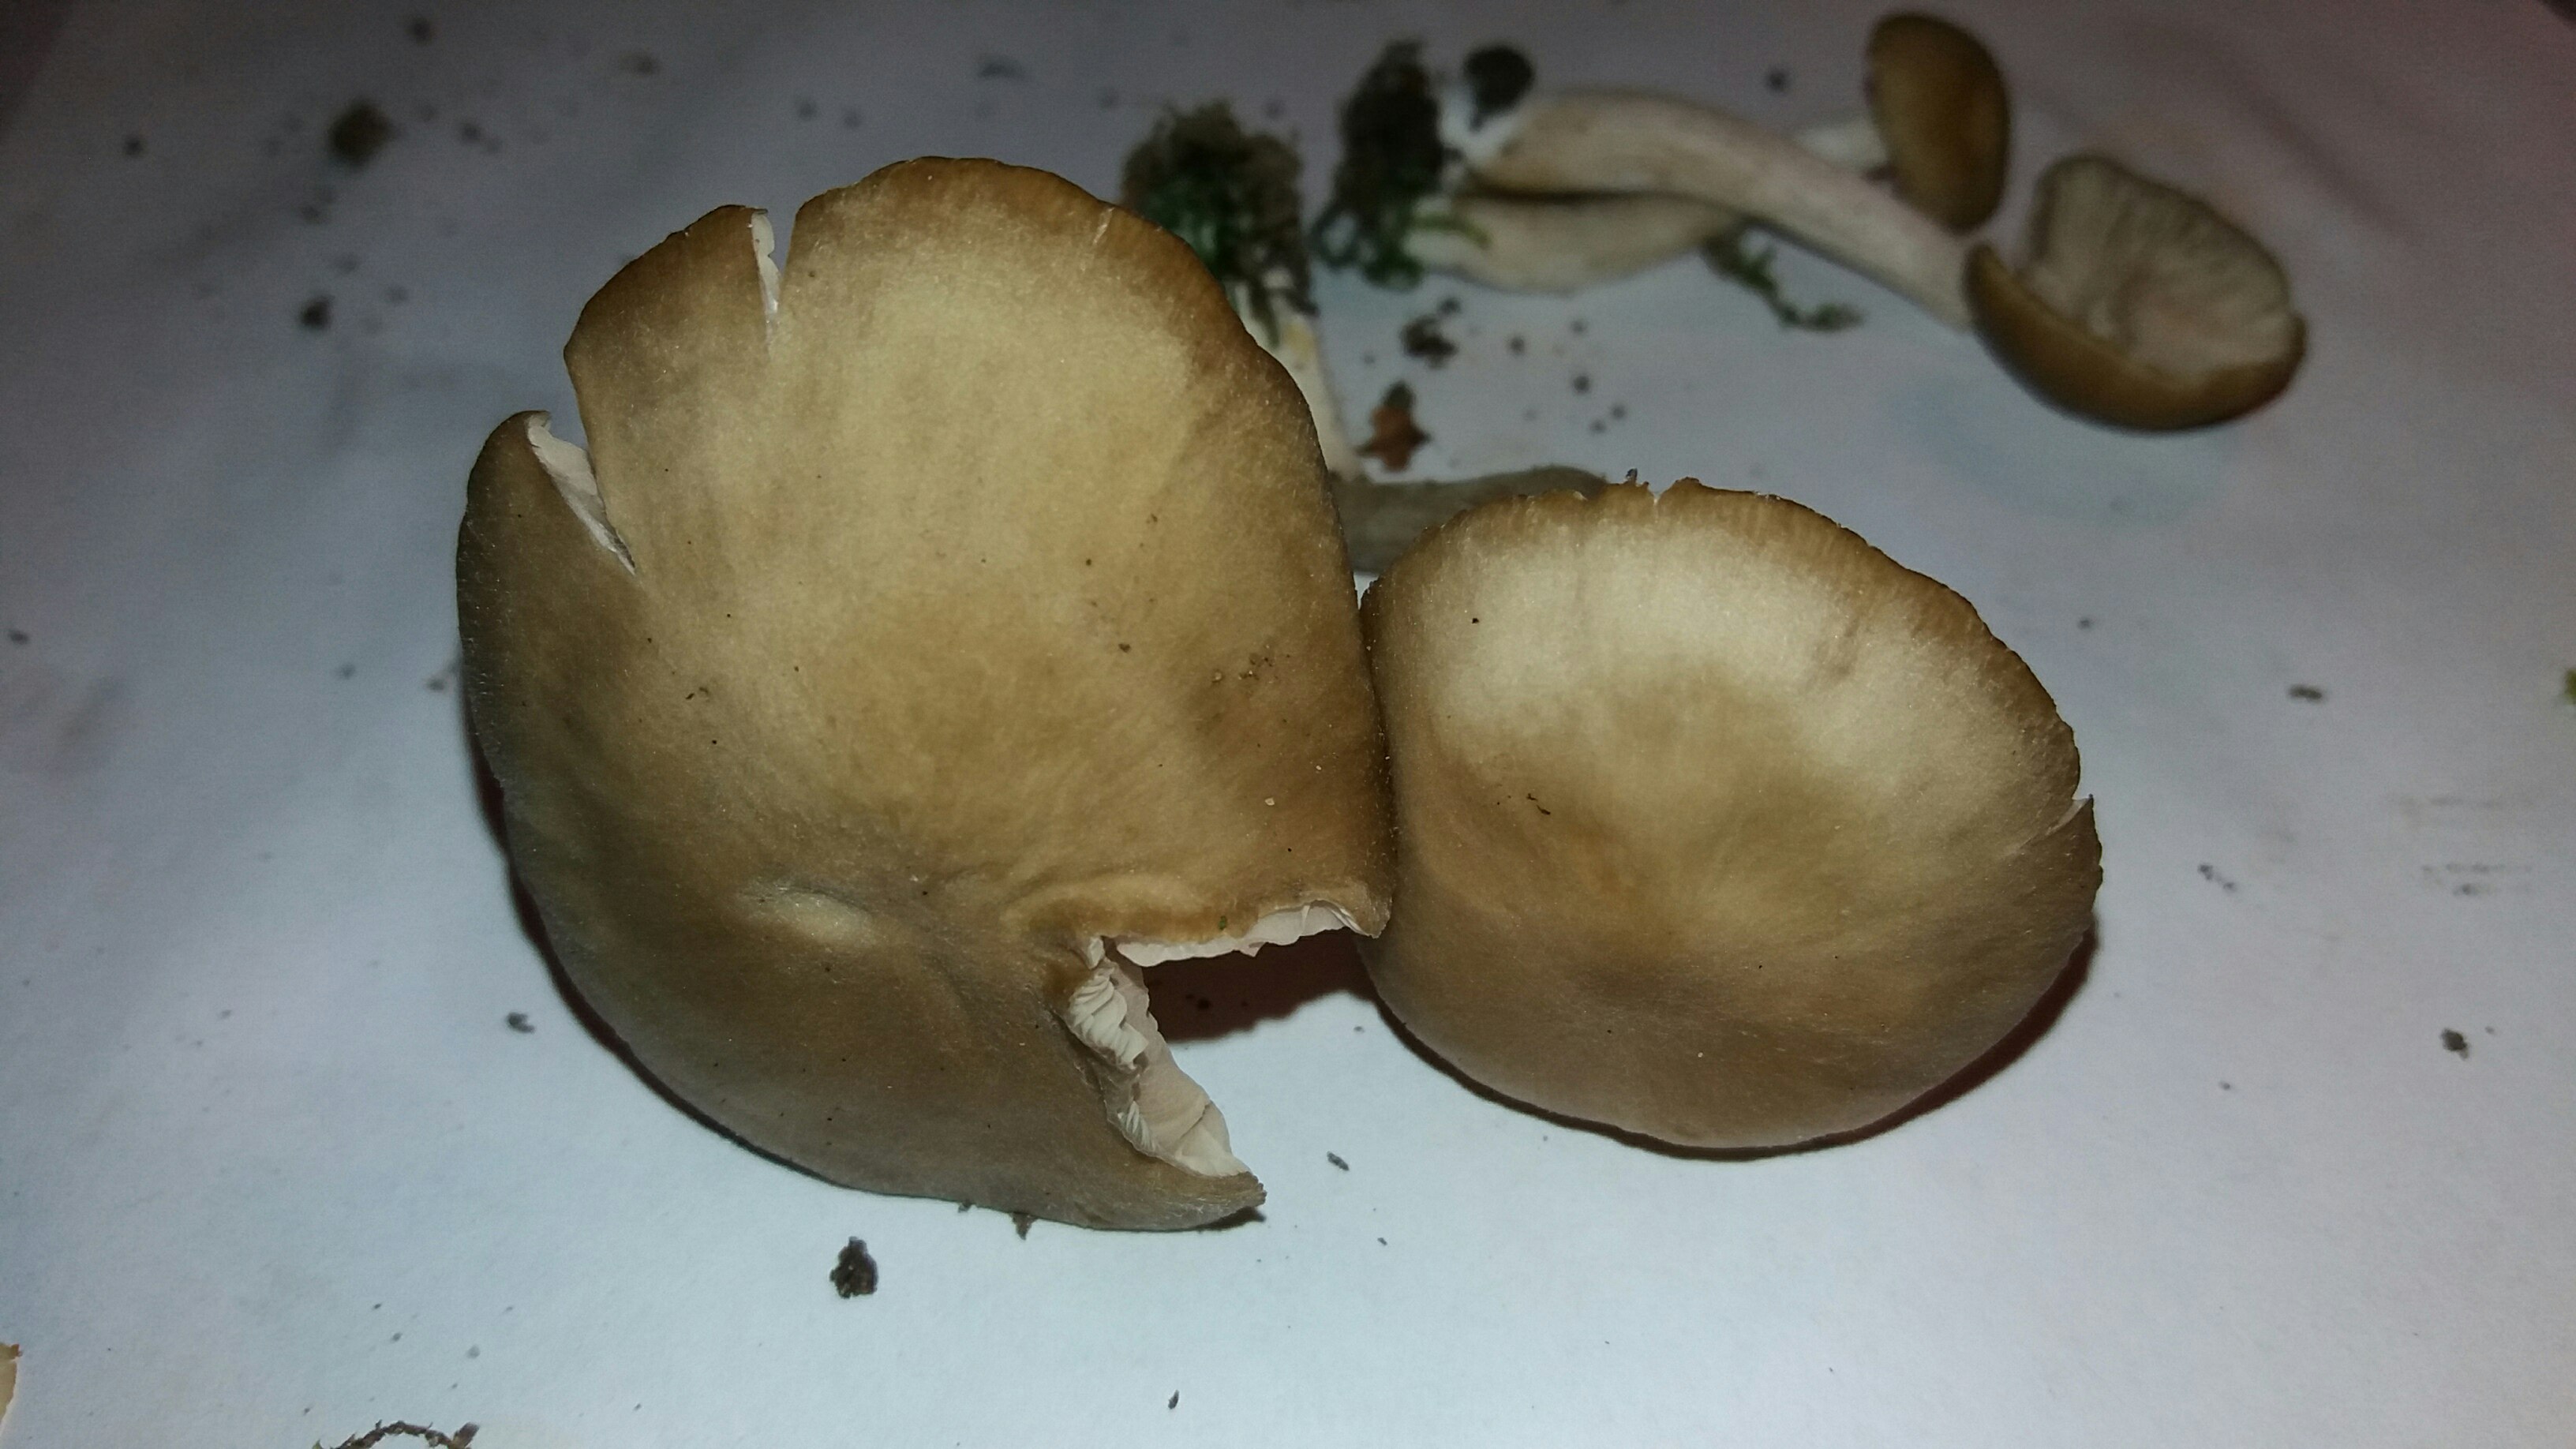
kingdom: Fungi
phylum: Basidiomycota
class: Agaricomycetes
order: Agaricales
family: Entolomataceae
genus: Entoloma
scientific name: Entoloma sericatum
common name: rank rødblad
